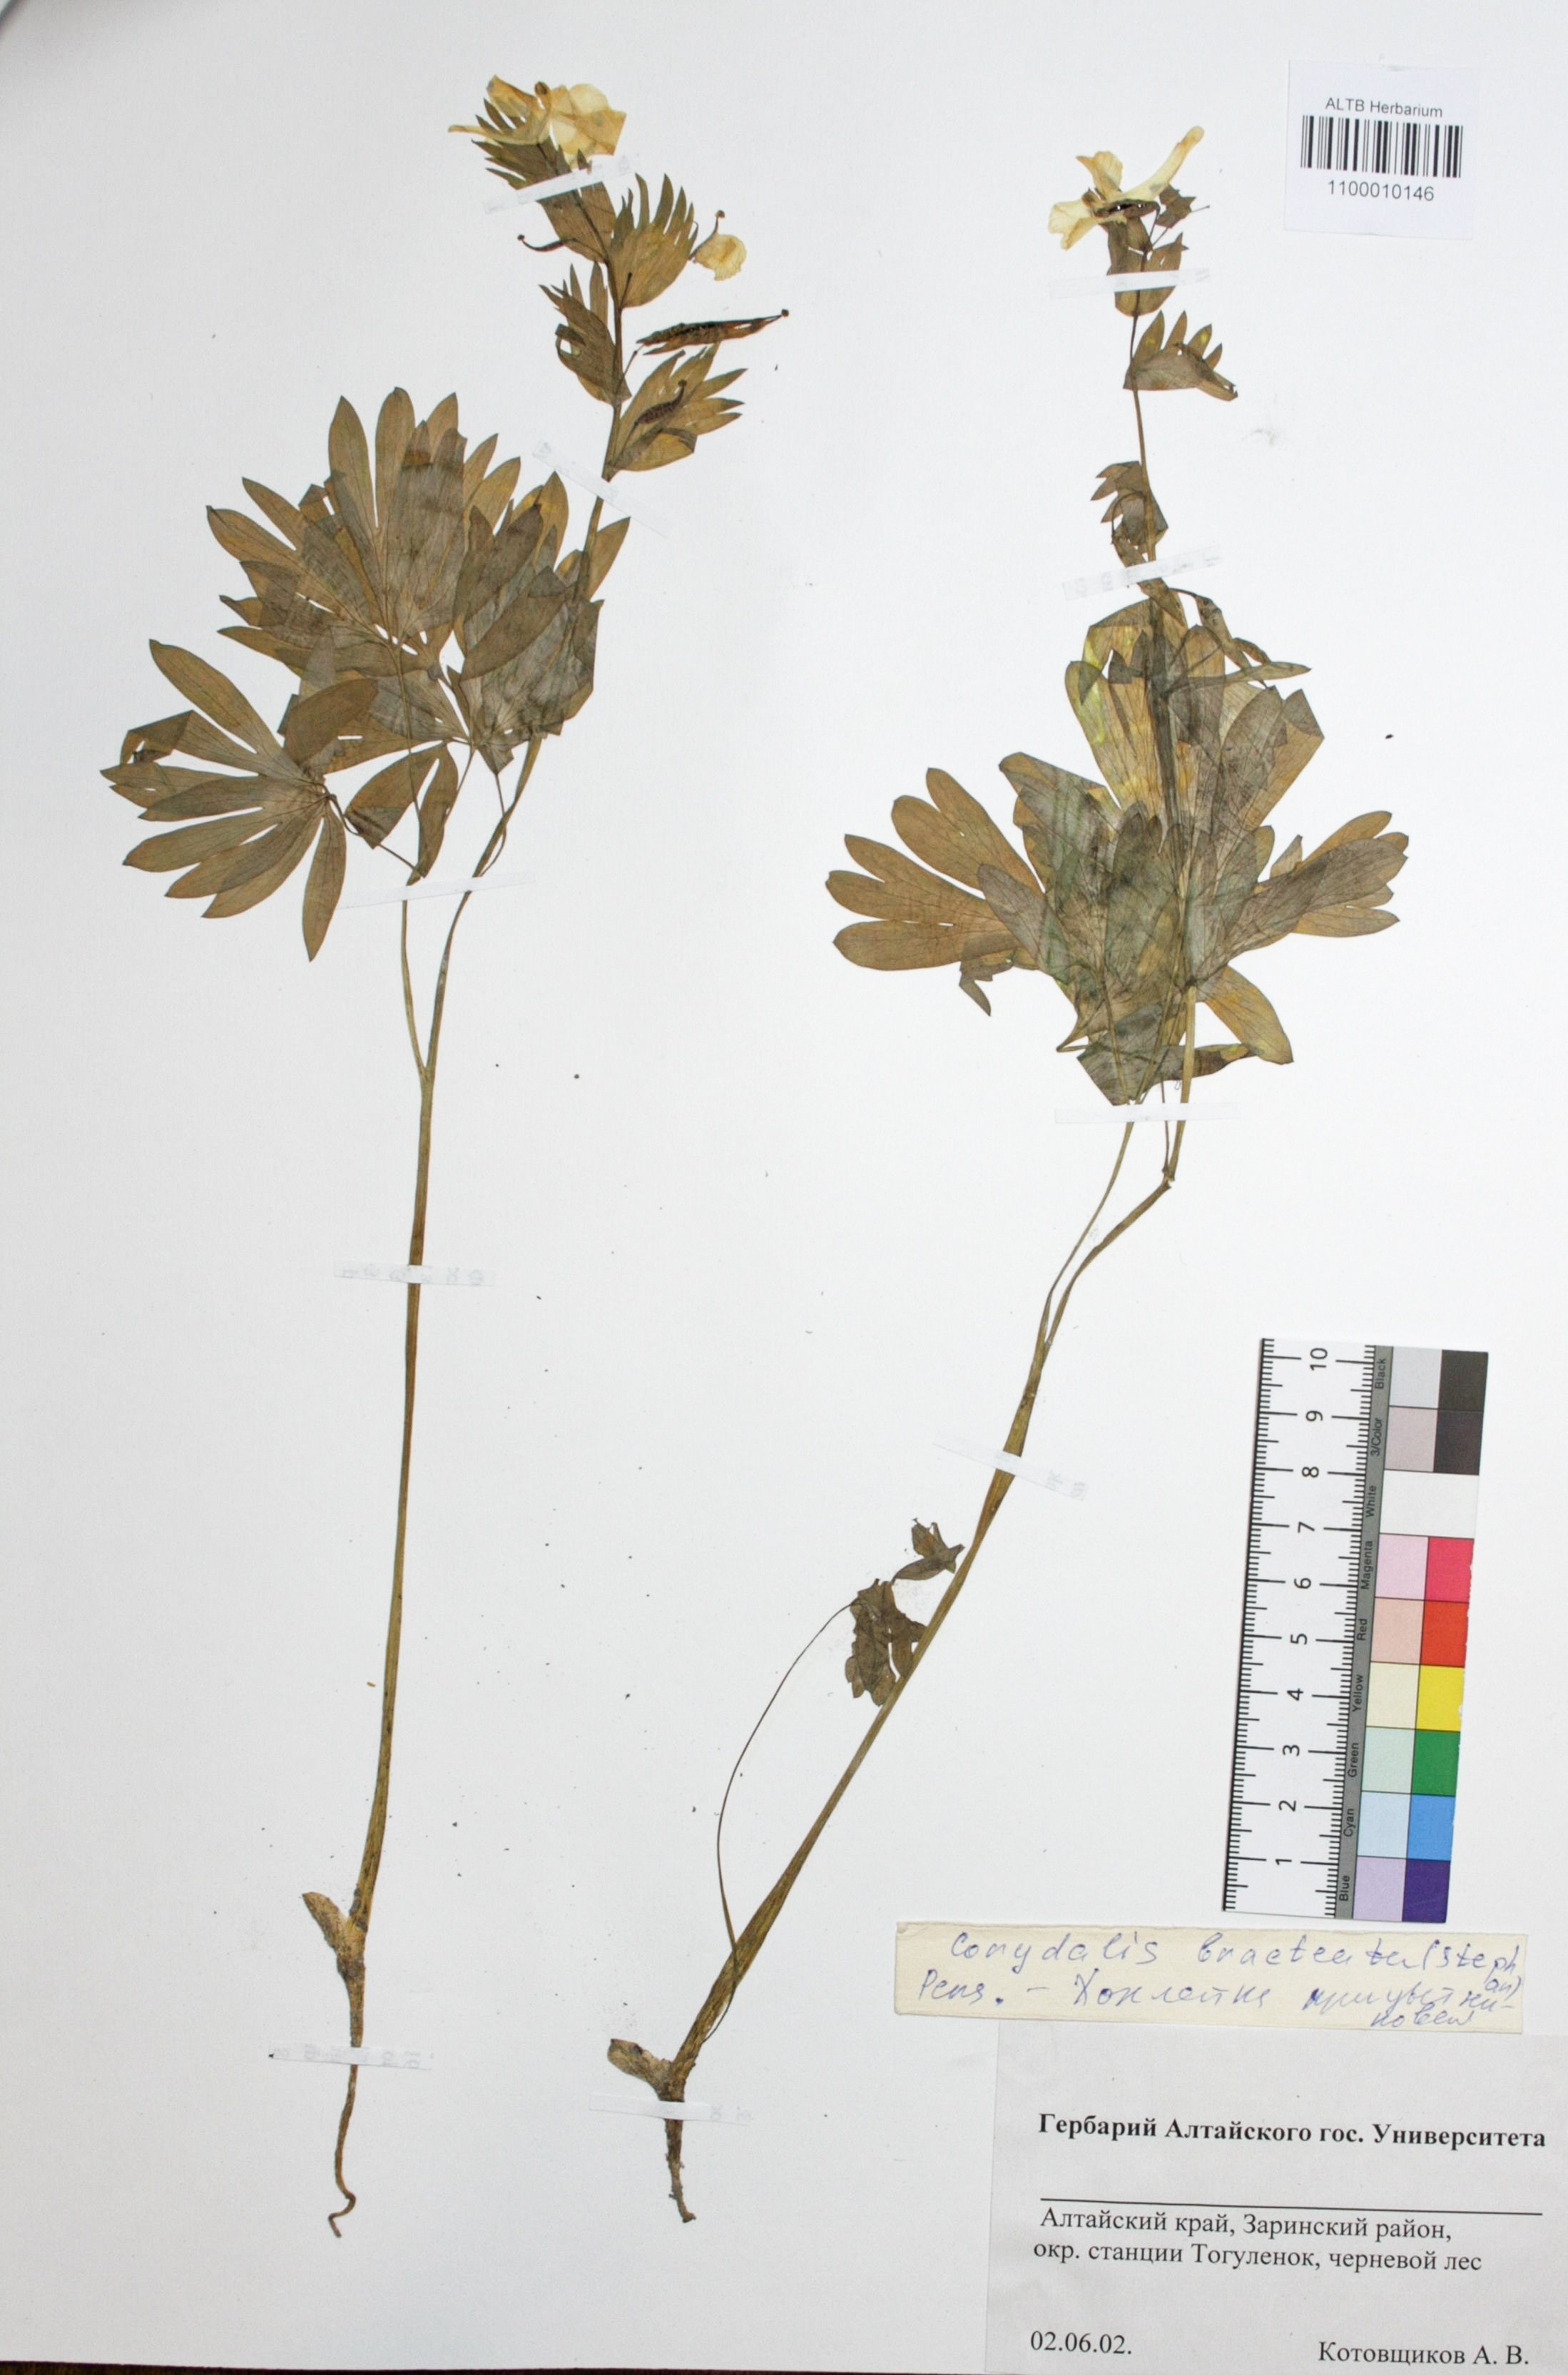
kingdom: Plantae
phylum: Tracheophyta
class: Magnoliopsida
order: Ranunculales
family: Papaveraceae
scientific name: Papaveraceae
